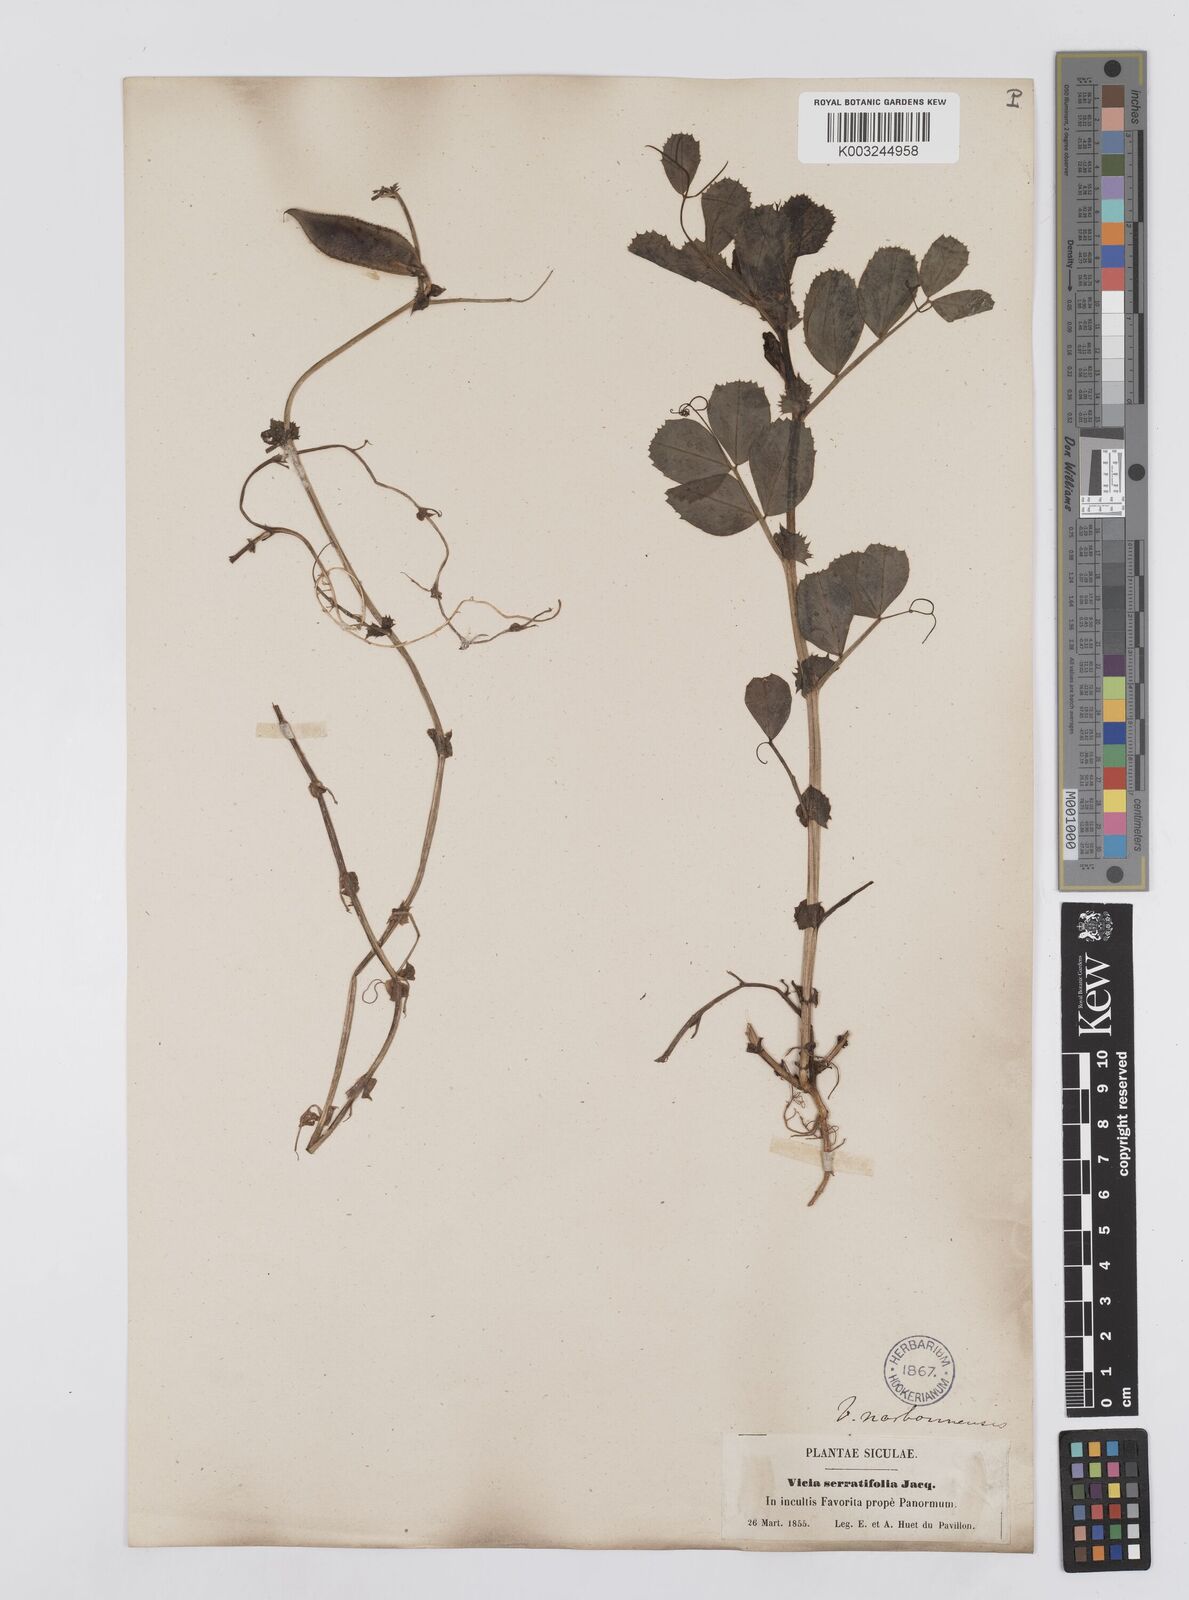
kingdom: Plantae
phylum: Tracheophyta
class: Magnoliopsida
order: Fabales
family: Fabaceae
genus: Vicia
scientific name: Vicia serratifolia
